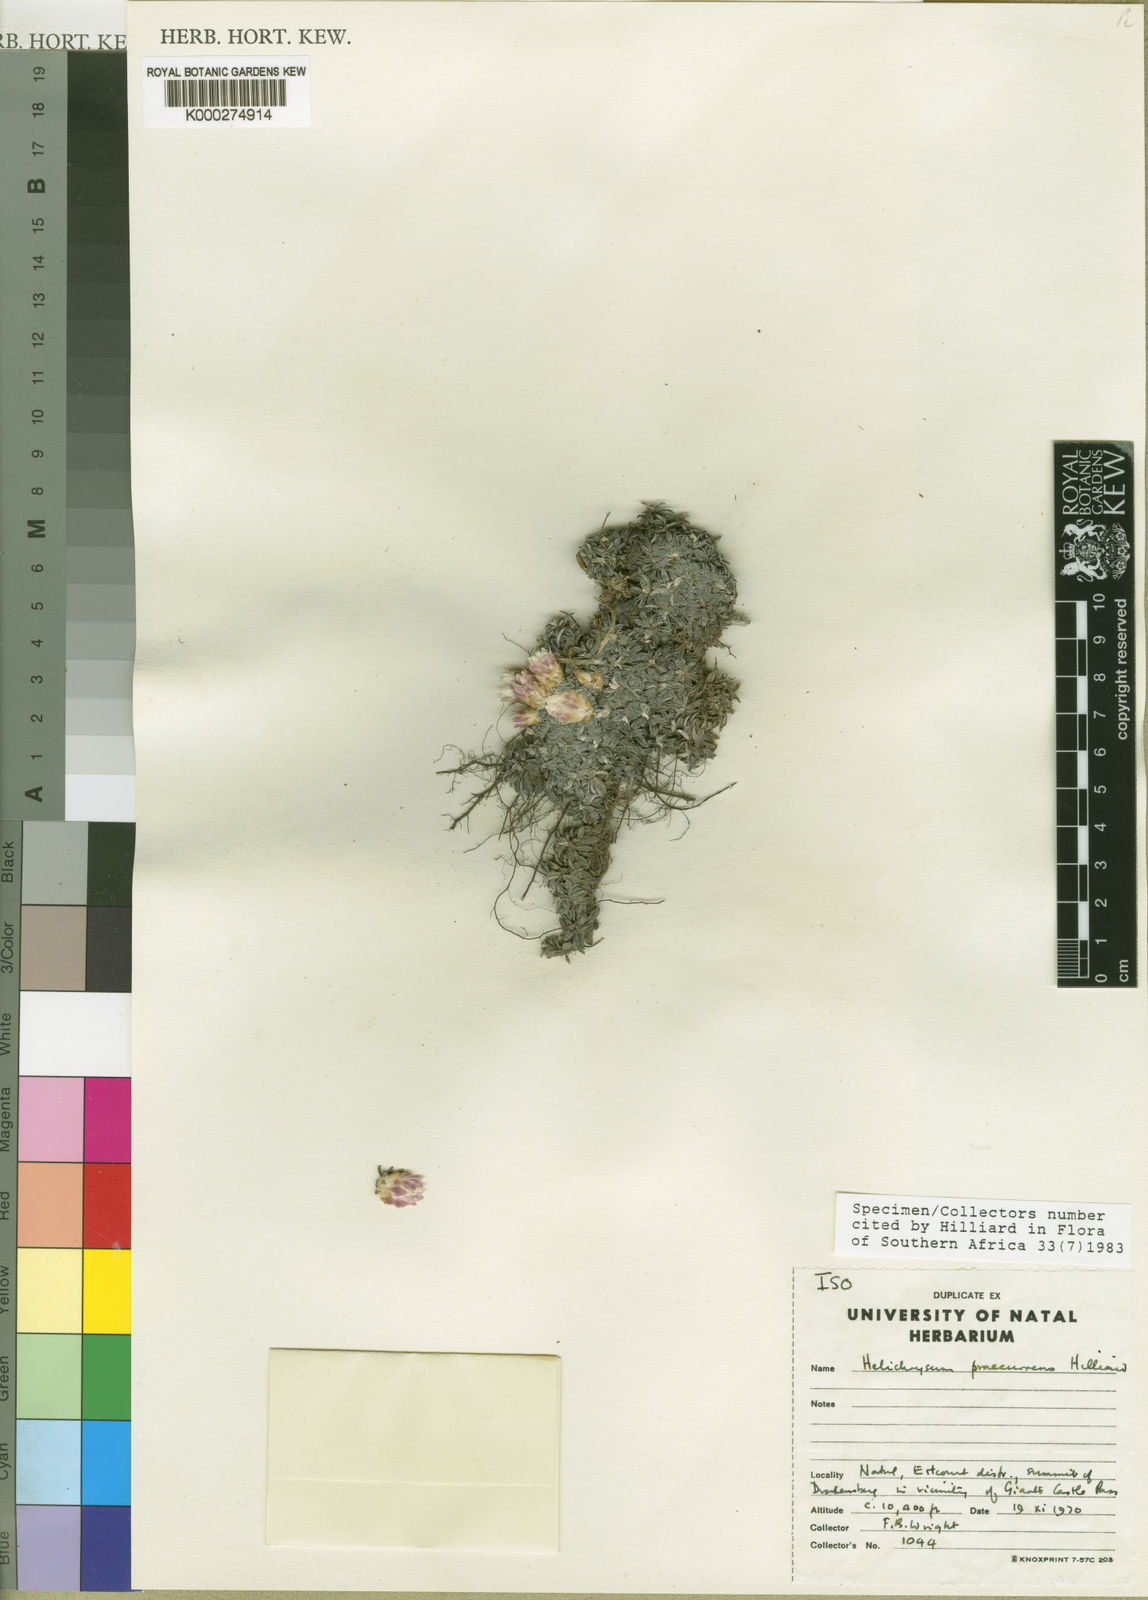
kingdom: Plantae
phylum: Tracheophyta
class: Magnoliopsida
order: Asterales
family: Asteraceae
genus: Helichrysum
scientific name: Helichrysum praecurrens
